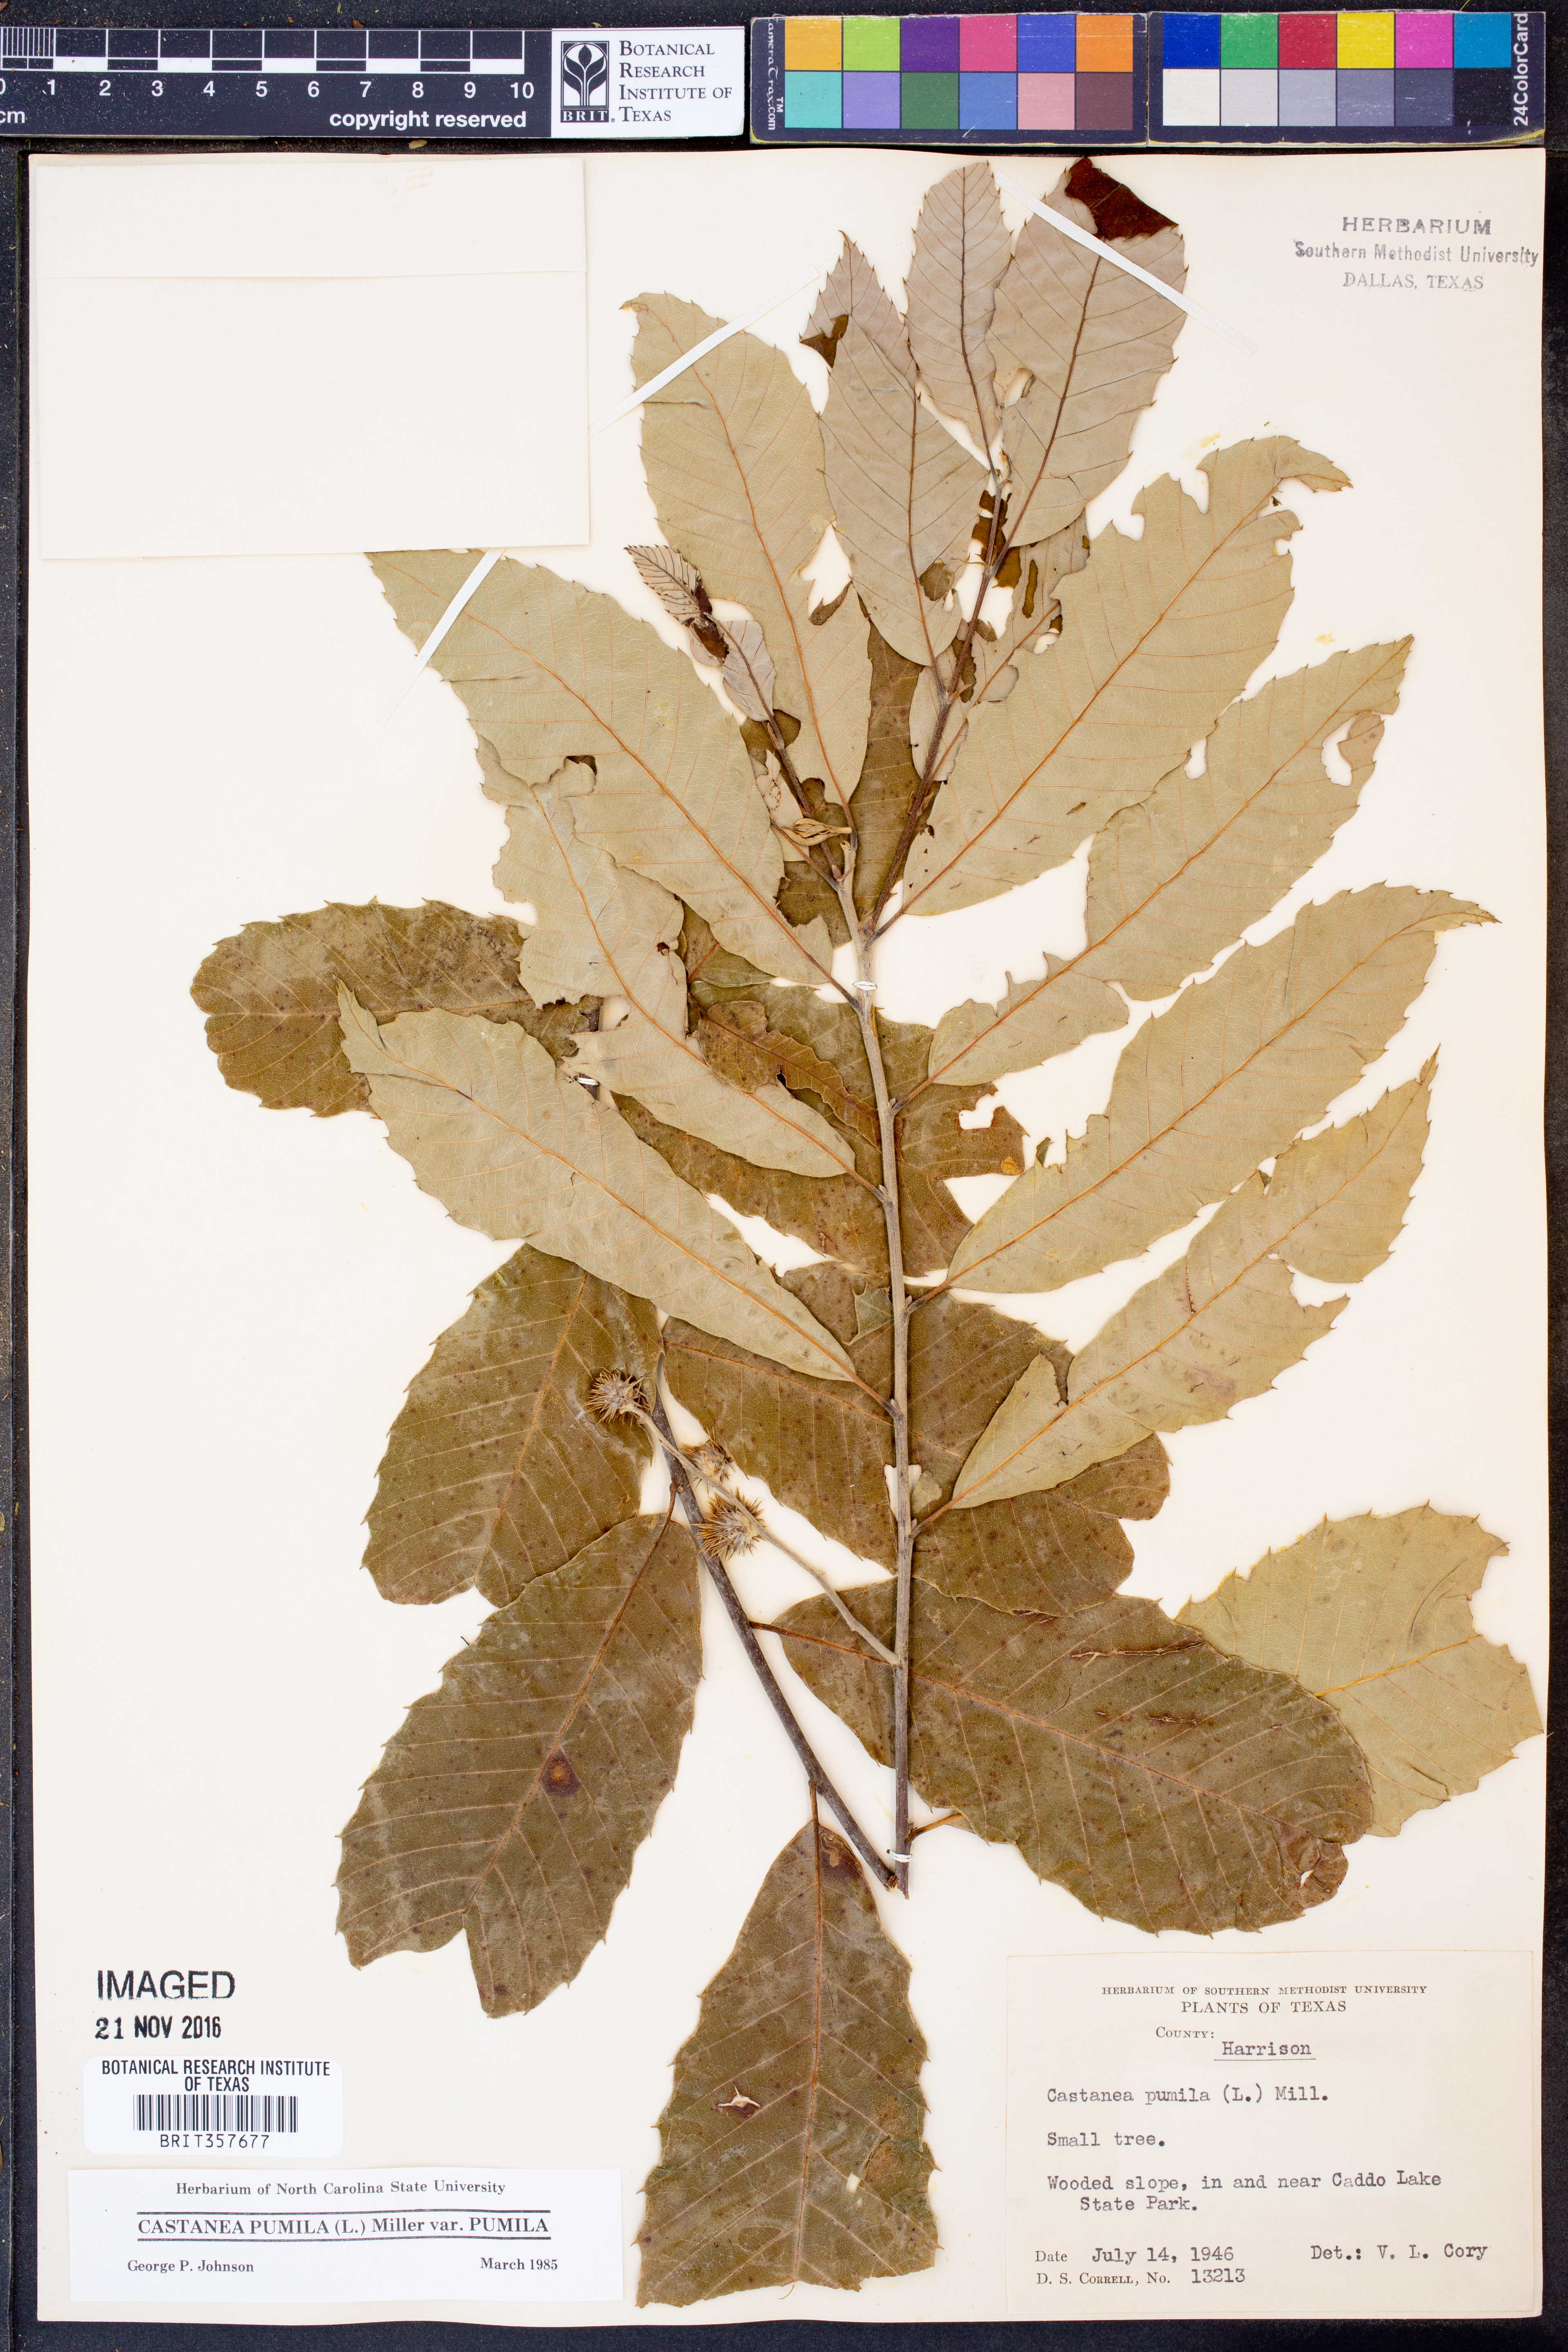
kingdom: Plantae
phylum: Tracheophyta
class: Magnoliopsida
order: Fagales
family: Fagaceae
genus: Castanea
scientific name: Castanea pumila
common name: Chinkapin
